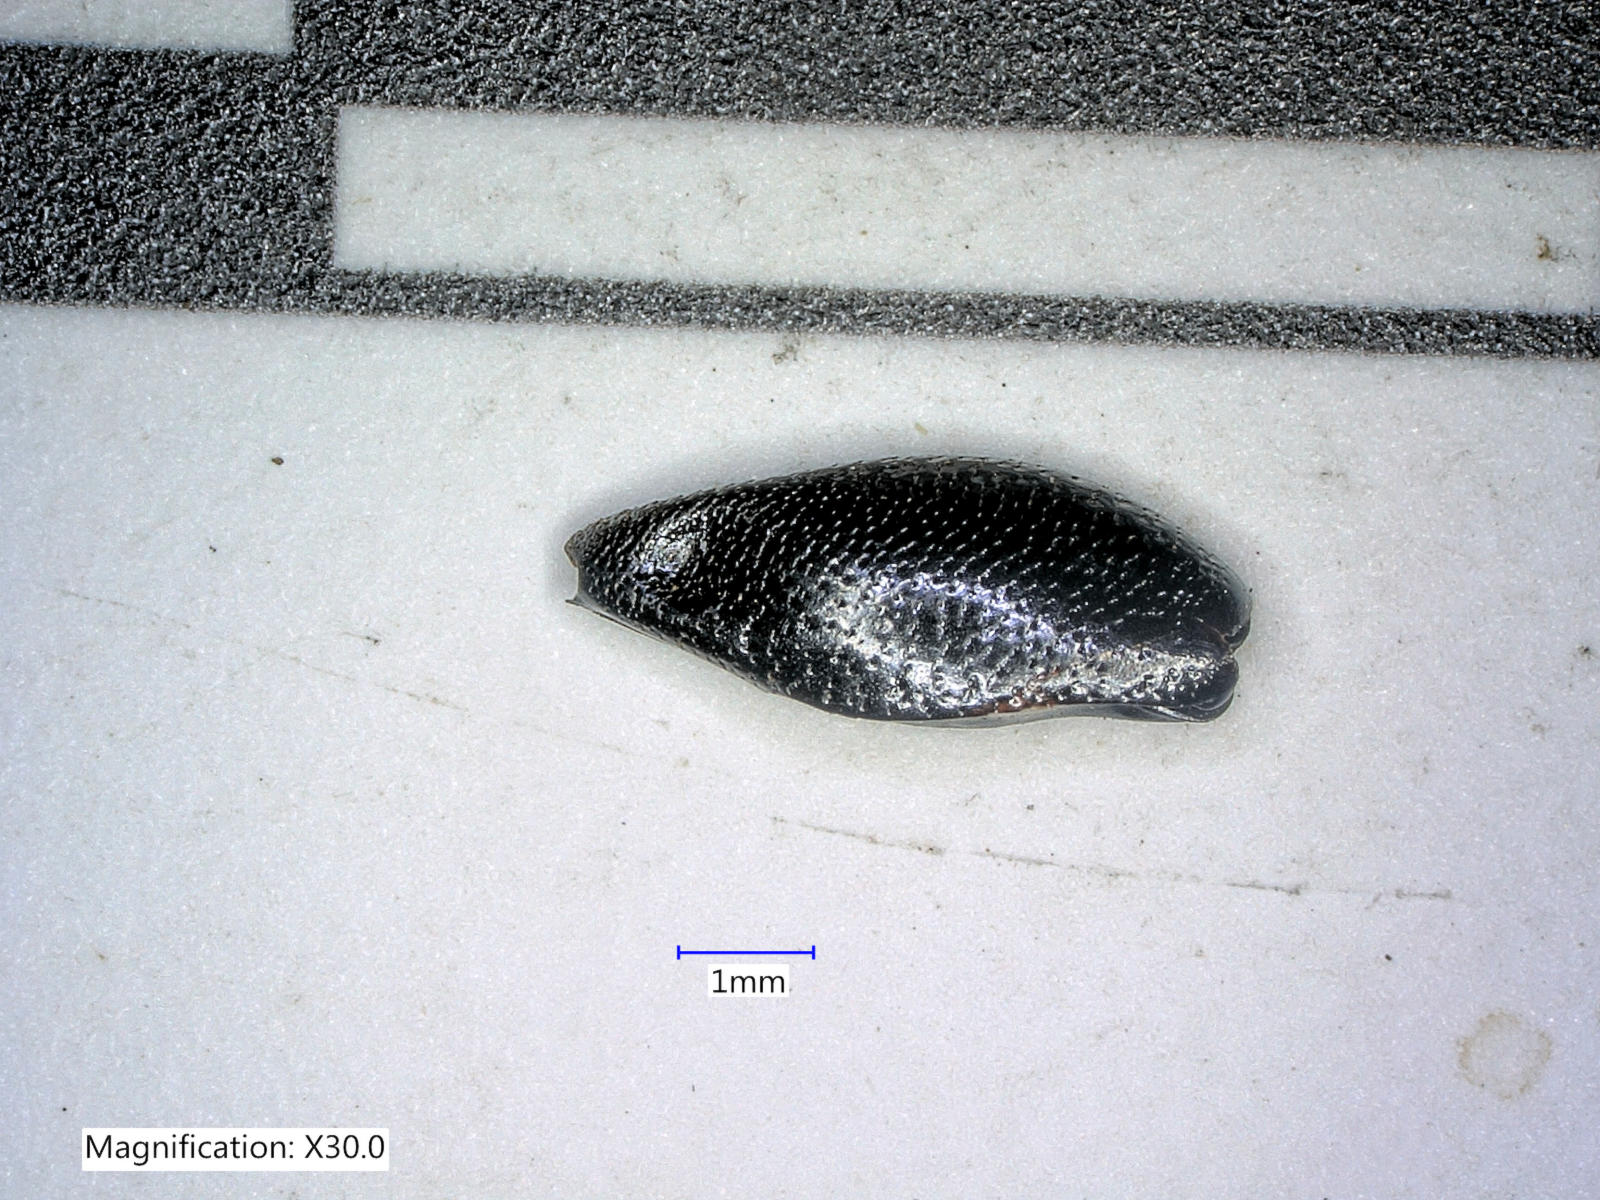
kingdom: Animalia
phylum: Arthropoda
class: Insecta
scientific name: Insecta
